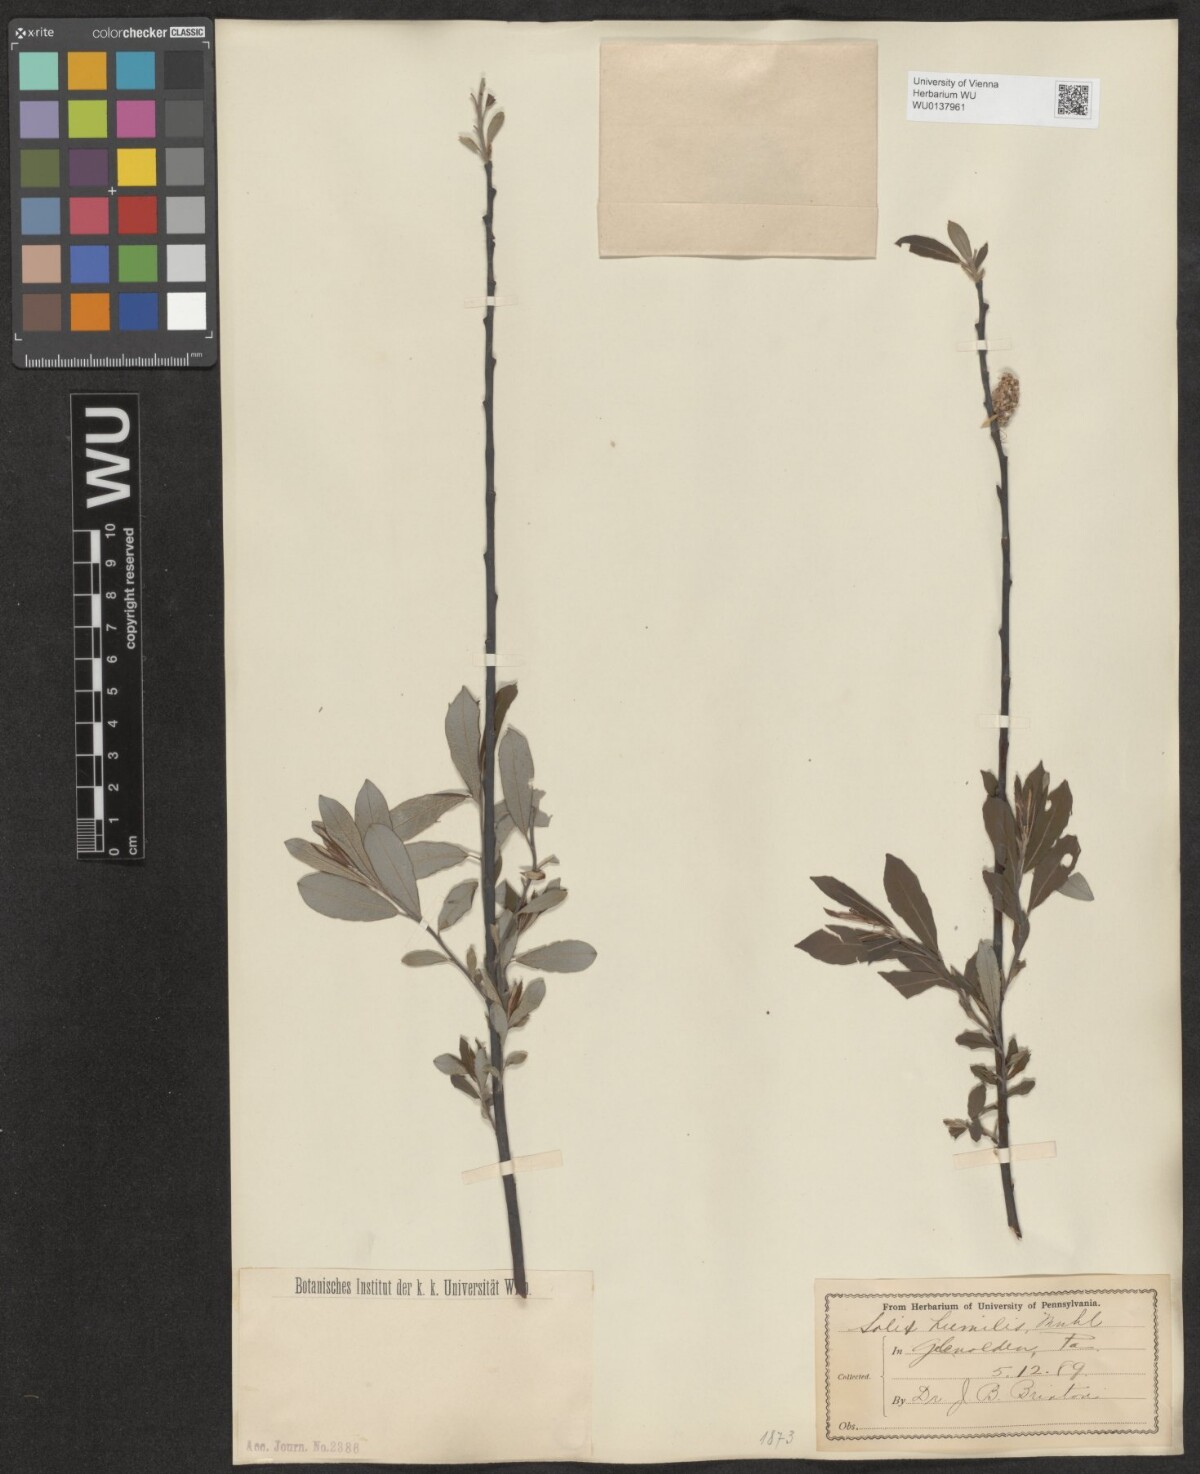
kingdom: Plantae
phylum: Tracheophyta
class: Magnoliopsida
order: Malpighiales
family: Salicaceae
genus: Salix
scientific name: Salix humilis
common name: Prairie willow
